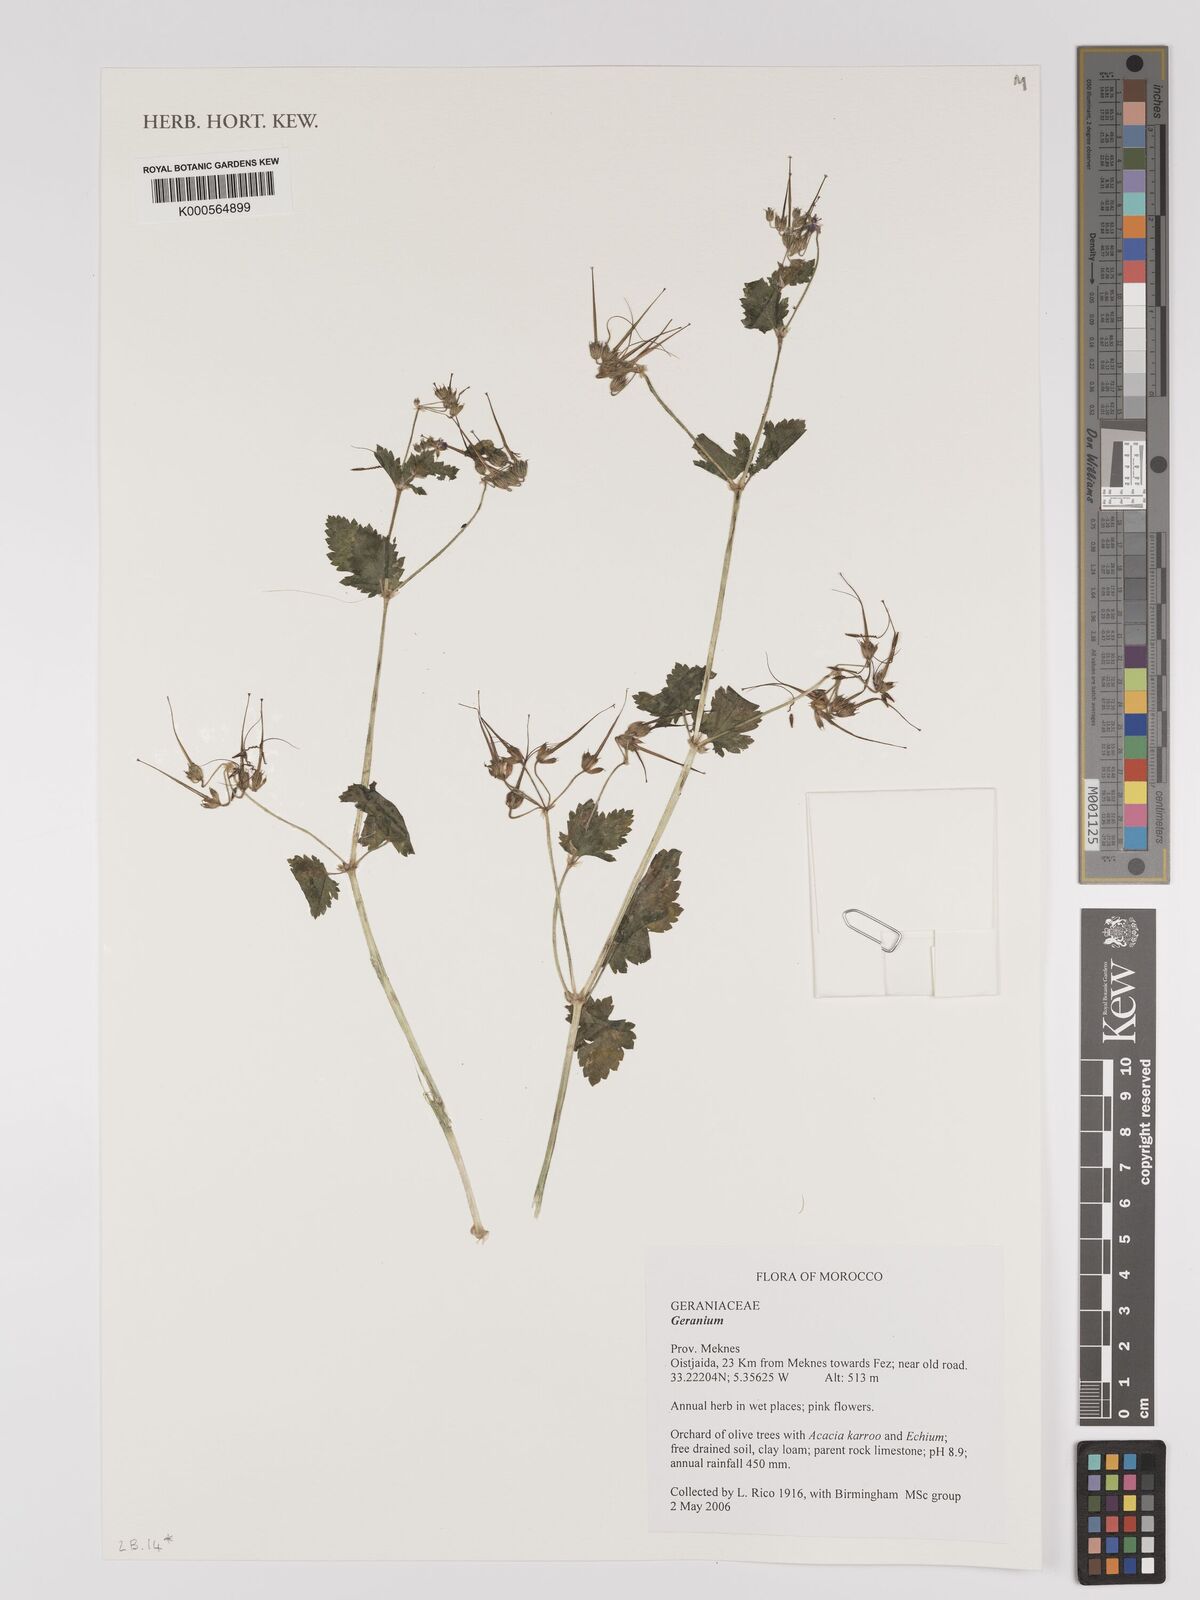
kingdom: Plantae
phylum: Tracheophyta
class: Magnoliopsida
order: Geraniales
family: Geraniaceae
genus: Geranium
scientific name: Geranium
